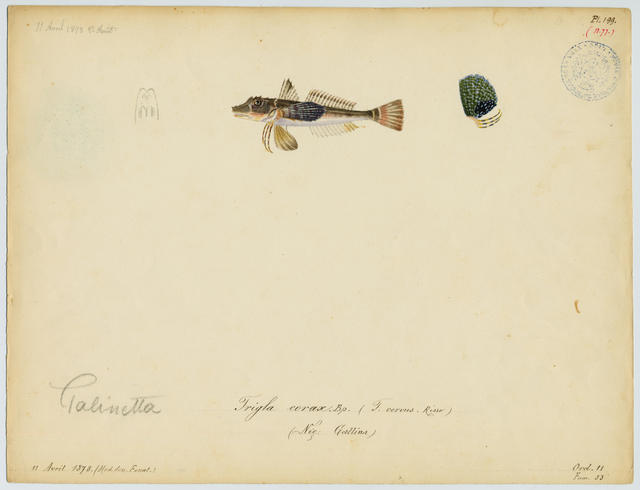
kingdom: Animalia
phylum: Chordata
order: Scorpaeniformes
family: Triglidae
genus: Chelidonichthys
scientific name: Chelidonichthys lucerna
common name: Tub gurnard
